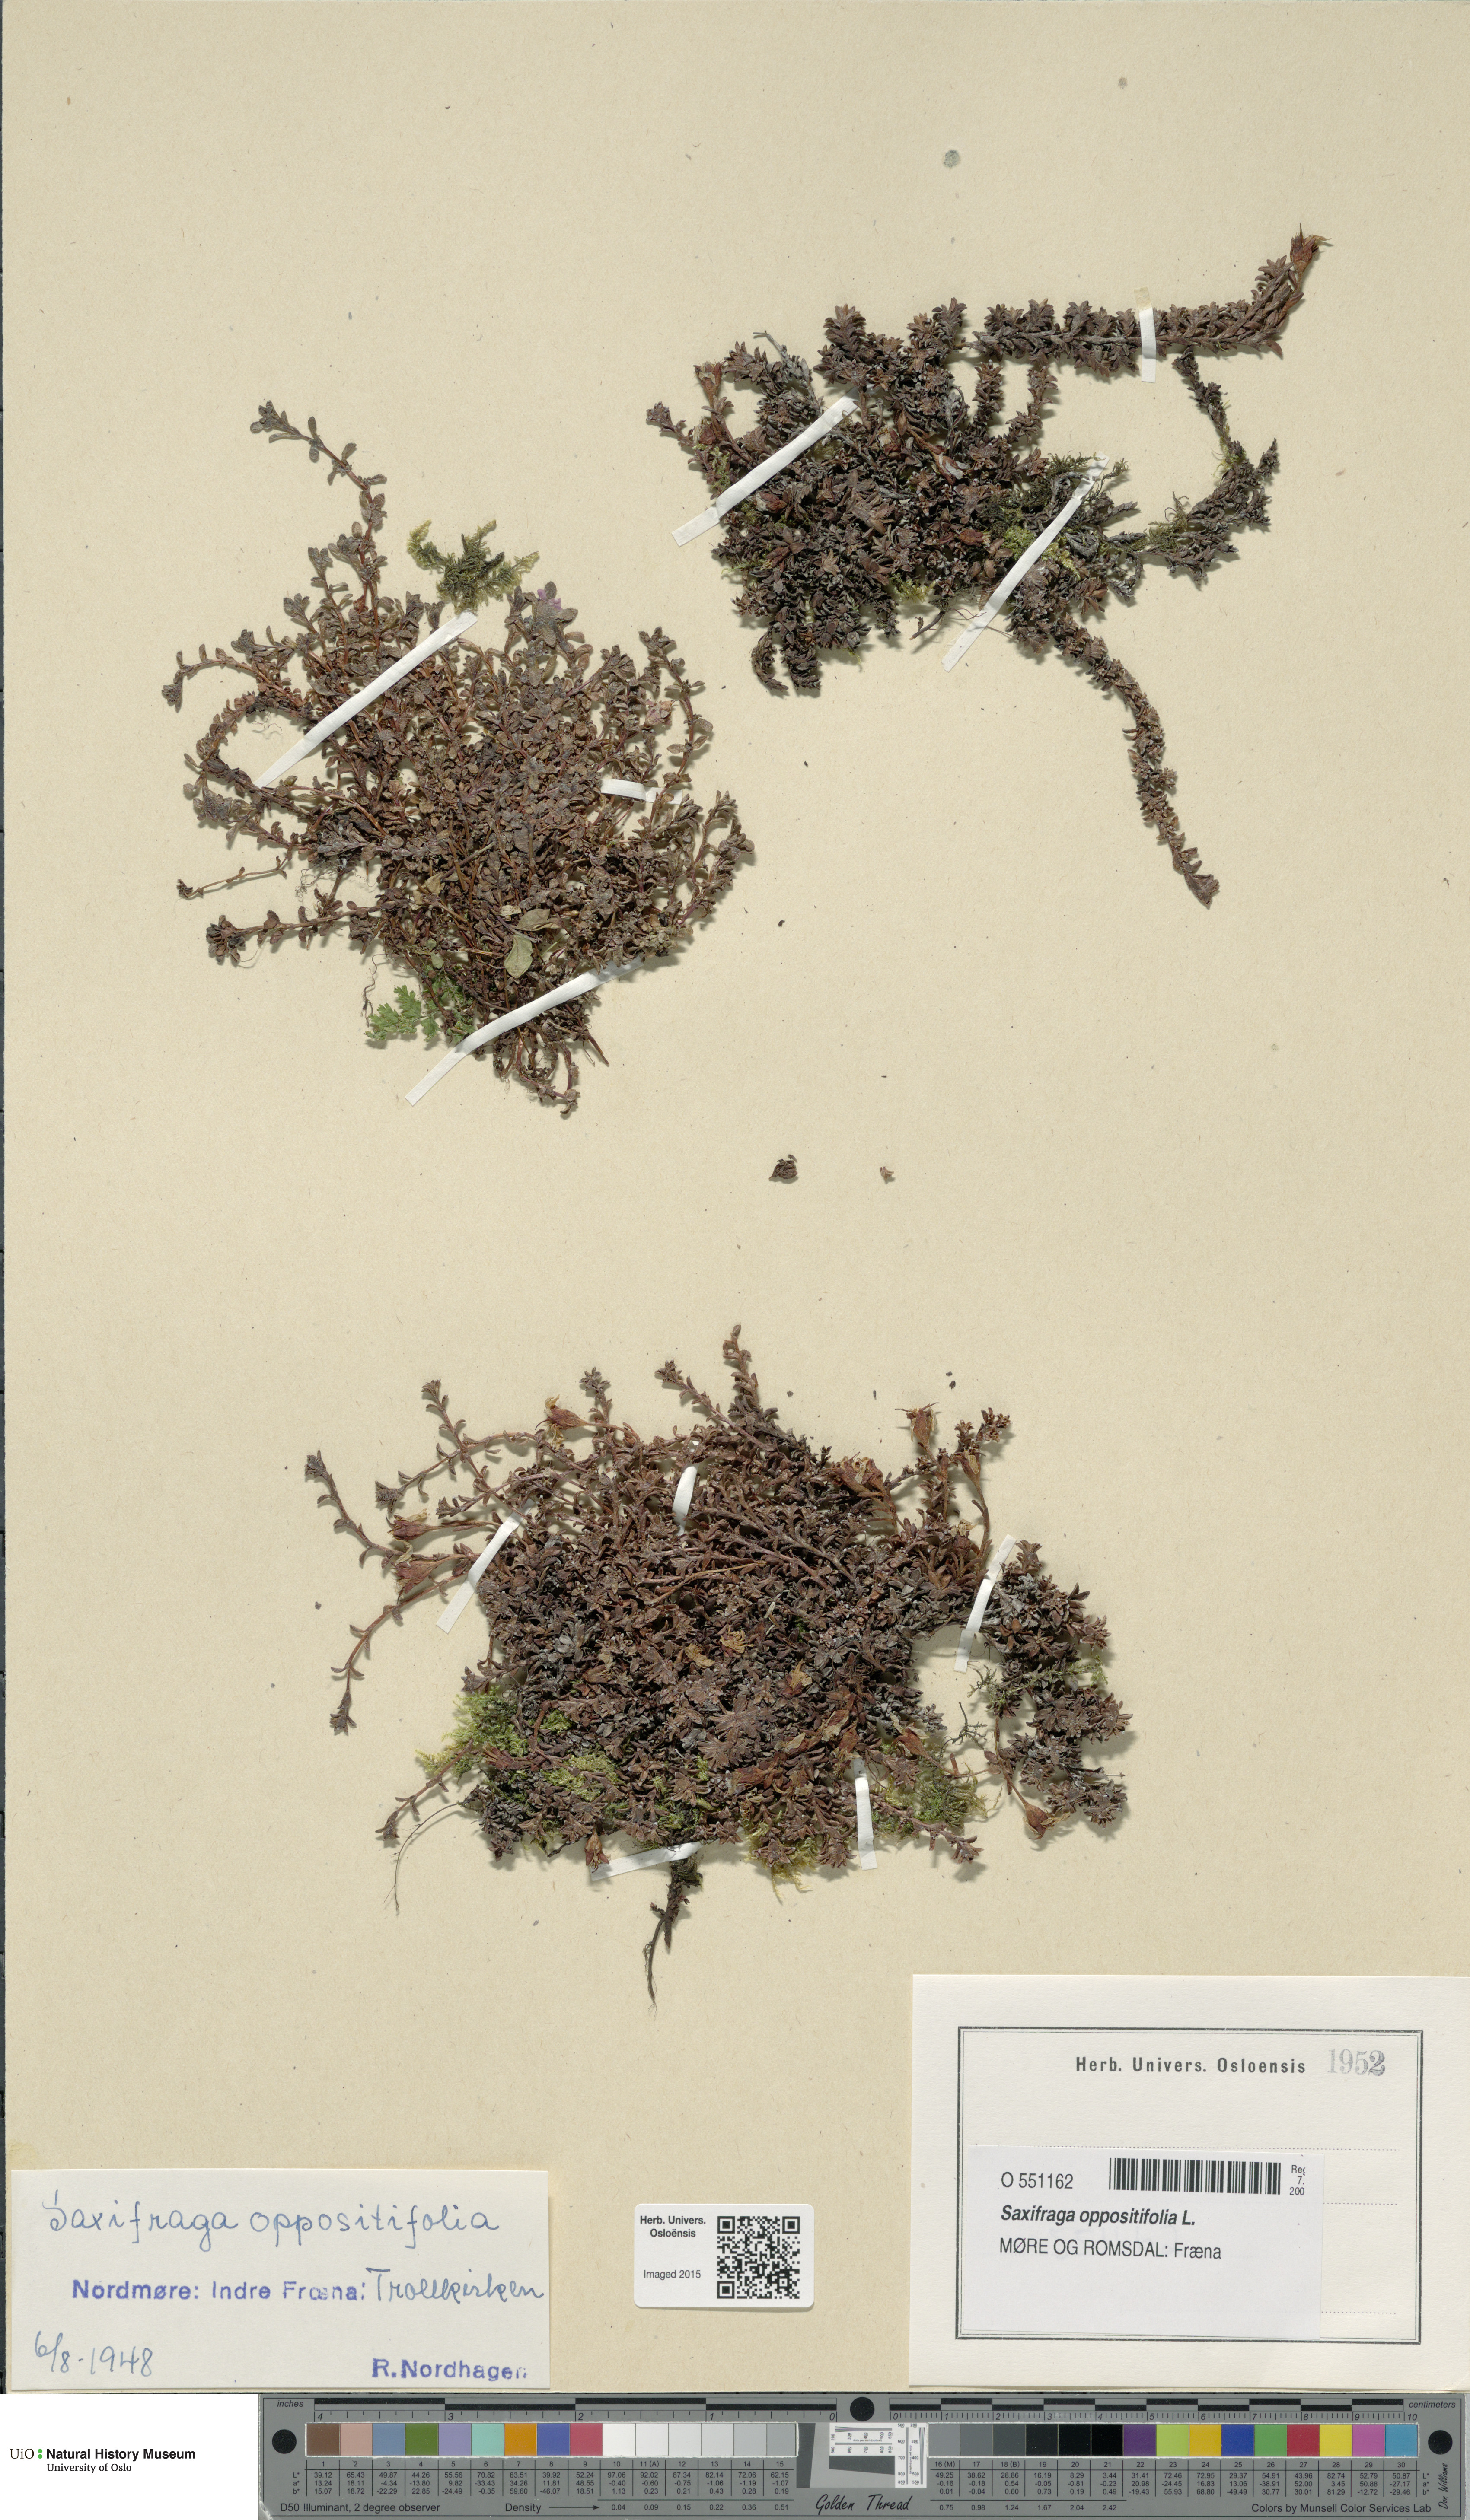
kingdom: Plantae
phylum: Tracheophyta
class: Magnoliopsida
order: Saxifragales
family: Saxifragaceae
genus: Saxifraga
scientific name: Saxifraga oppositifolia
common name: Purple saxifrage
